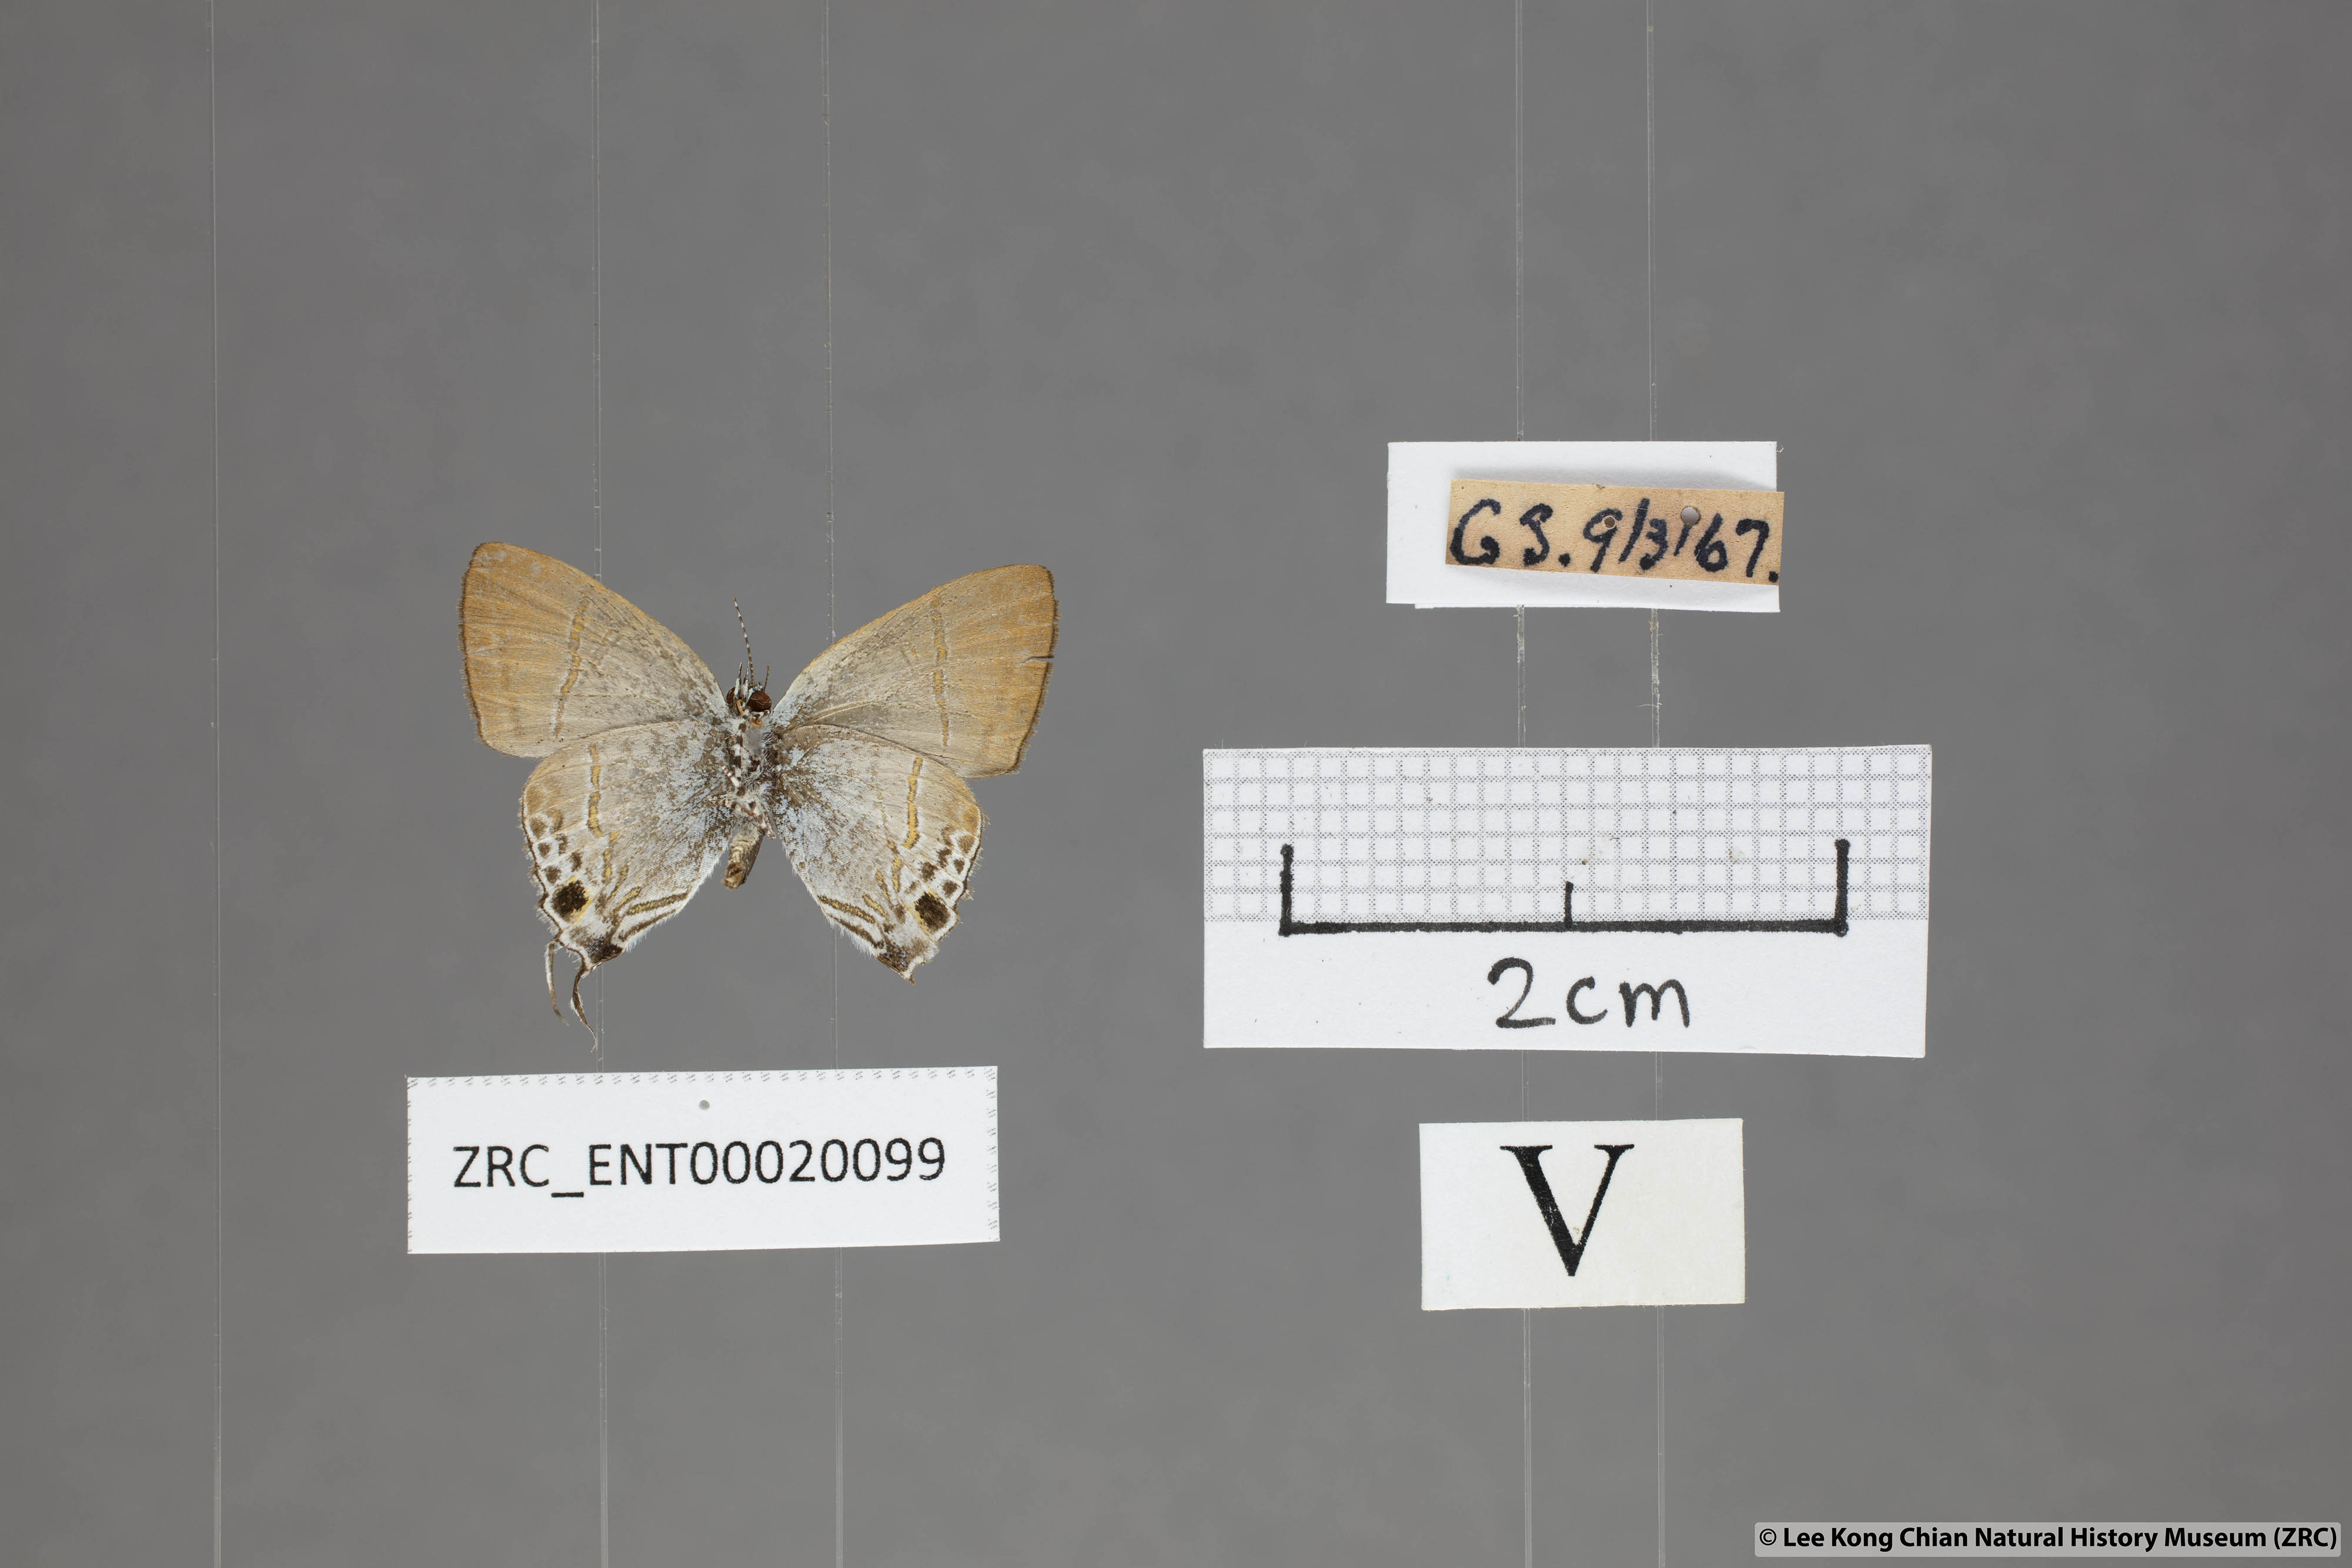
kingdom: Animalia
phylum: Arthropoda
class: Insecta
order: Lepidoptera
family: Lycaenidae
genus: Hypolycaena
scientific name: Hypolycaena merguia
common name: Purple tit
